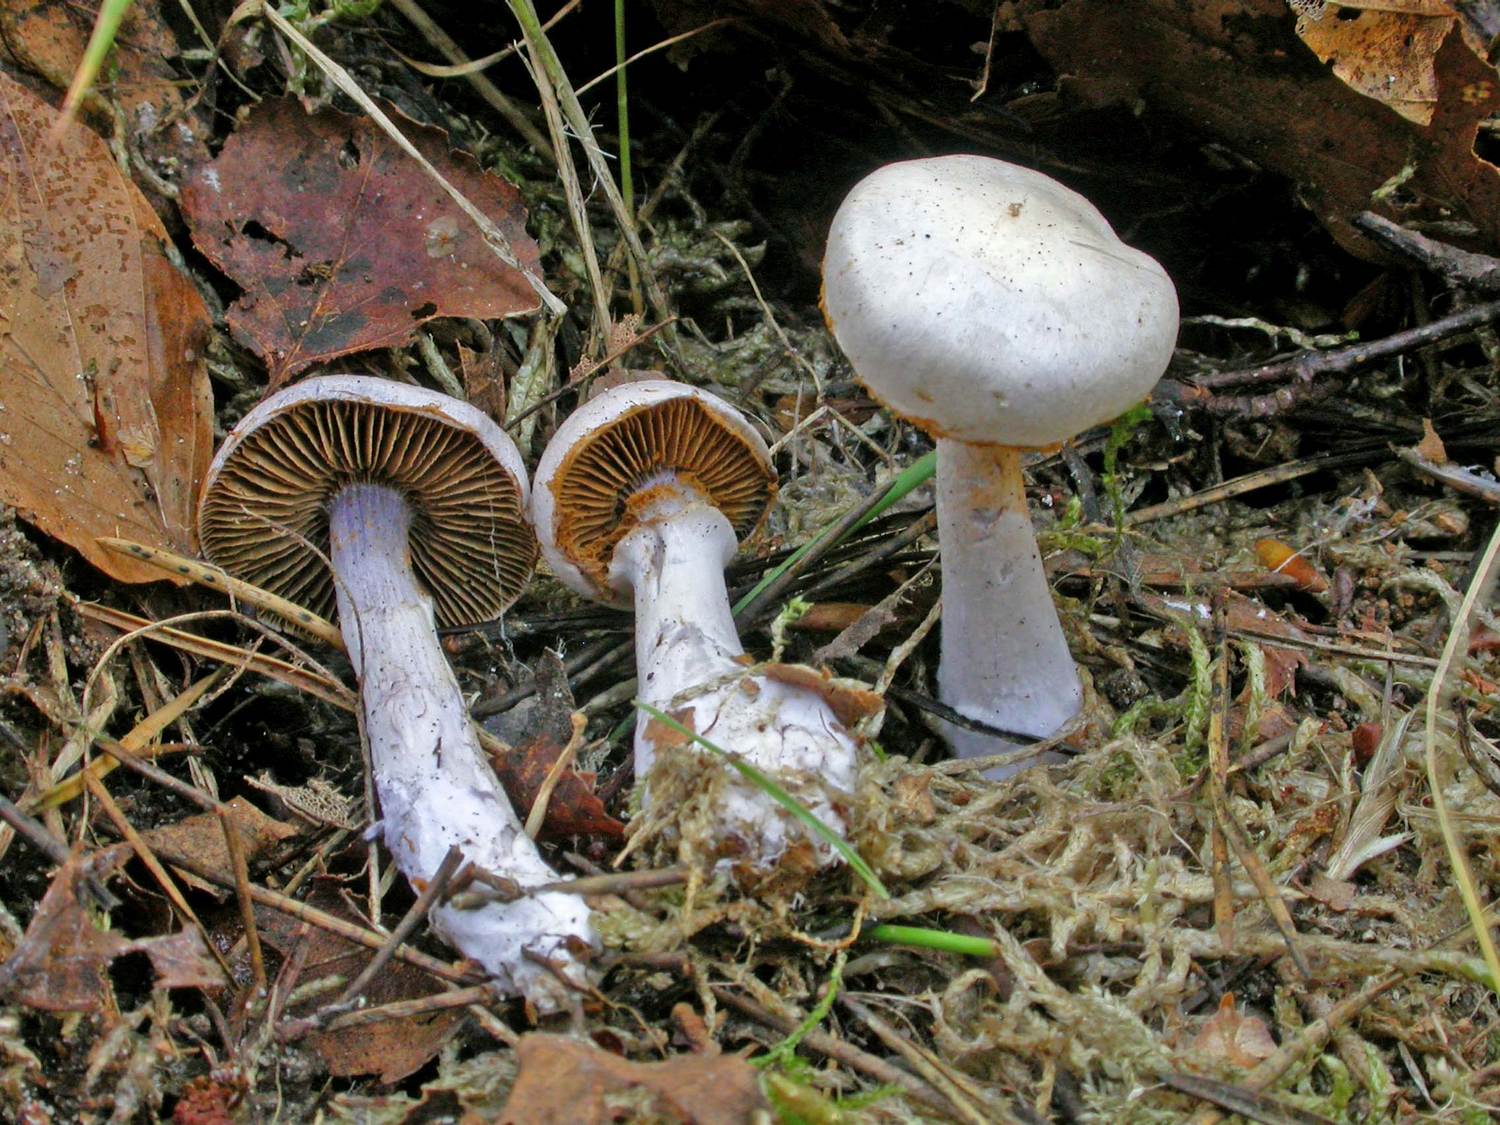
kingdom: Fungi
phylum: Basidiomycota
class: Agaricomycetes
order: Agaricales
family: Cortinariaceae
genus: Cortinarius
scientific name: Cortinarius alboviolaceus
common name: lysviolet slørhat
